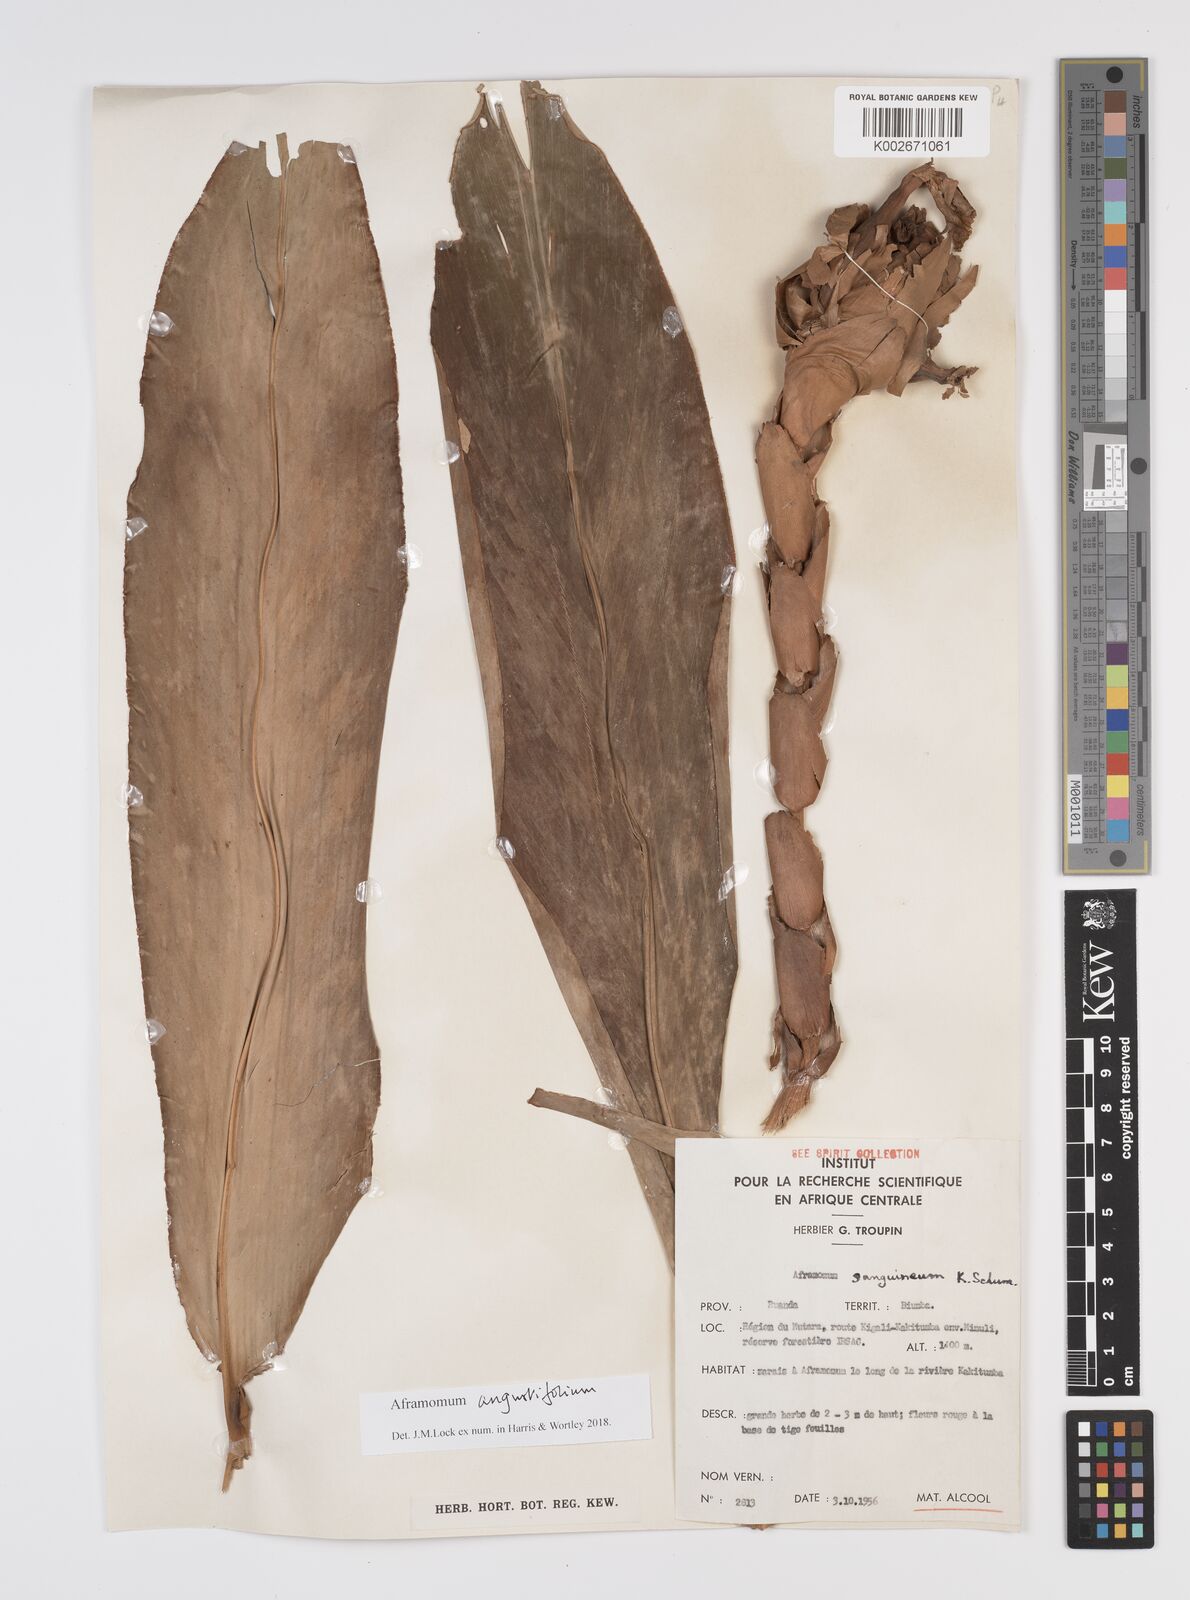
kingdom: Plantae
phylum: Tracheophyta
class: Liliopsida
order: Zingiberales
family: Zingiberaceae
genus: Aframomum
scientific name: Aframomum angustifolium
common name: Guinea grains
